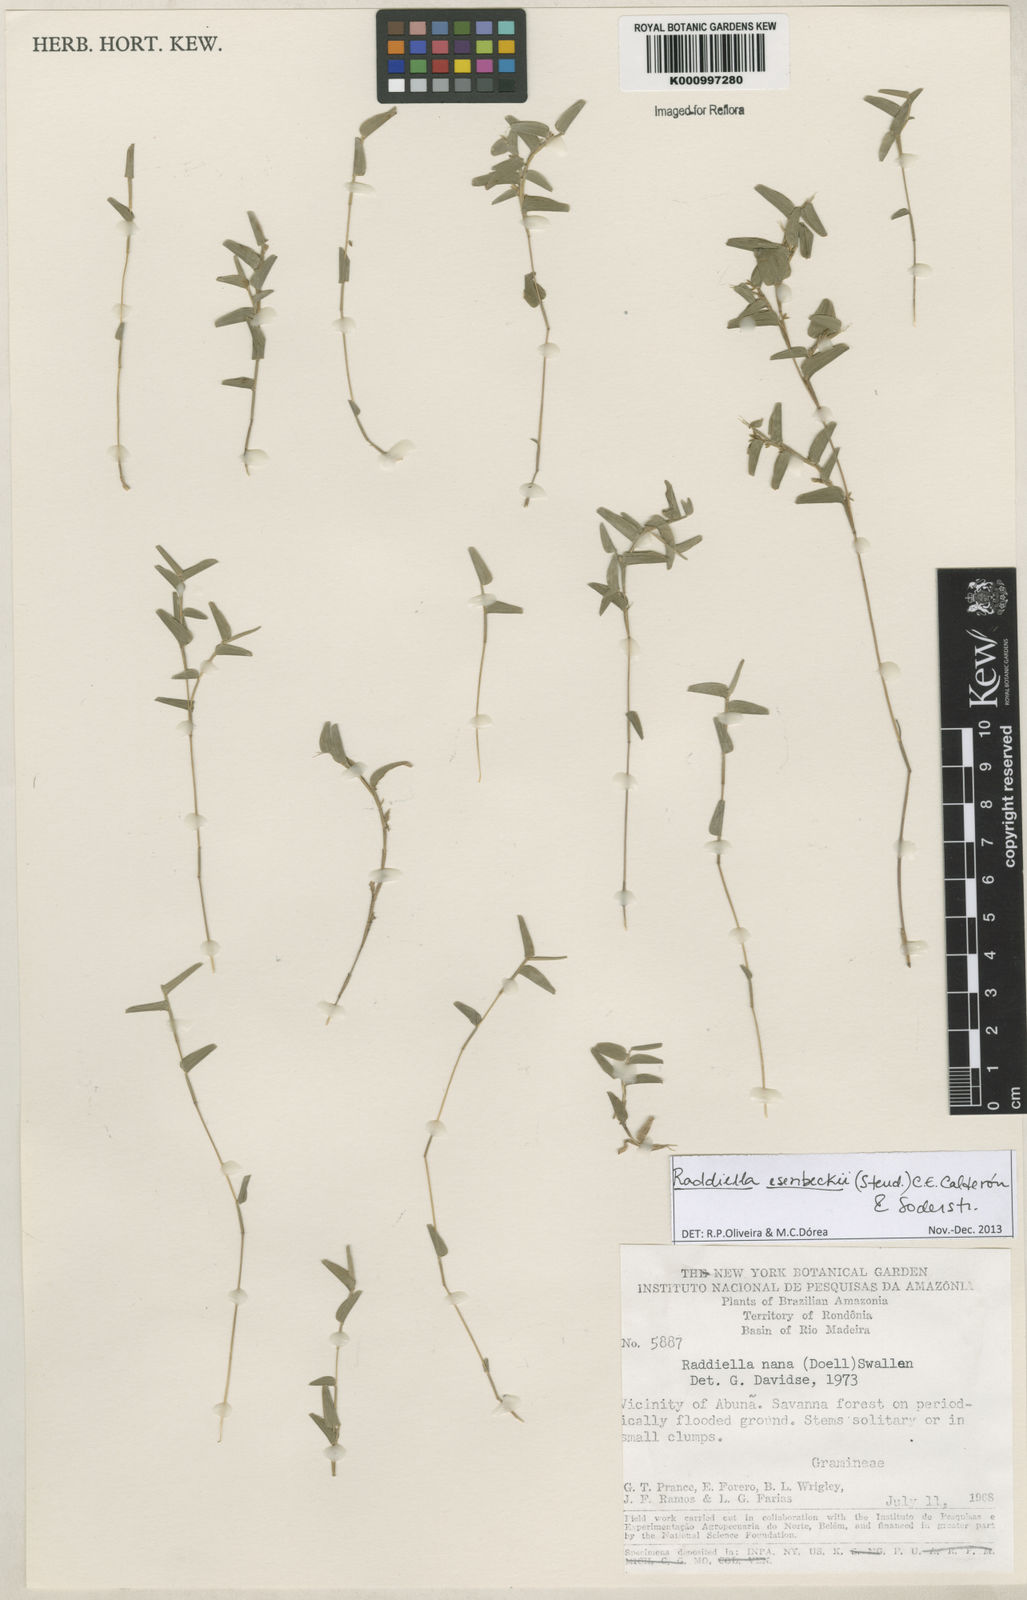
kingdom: Plantae
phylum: Tracheophyta
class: Liliopsida
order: Poales
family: Poaceae
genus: Raddiella
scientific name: Raddiella
